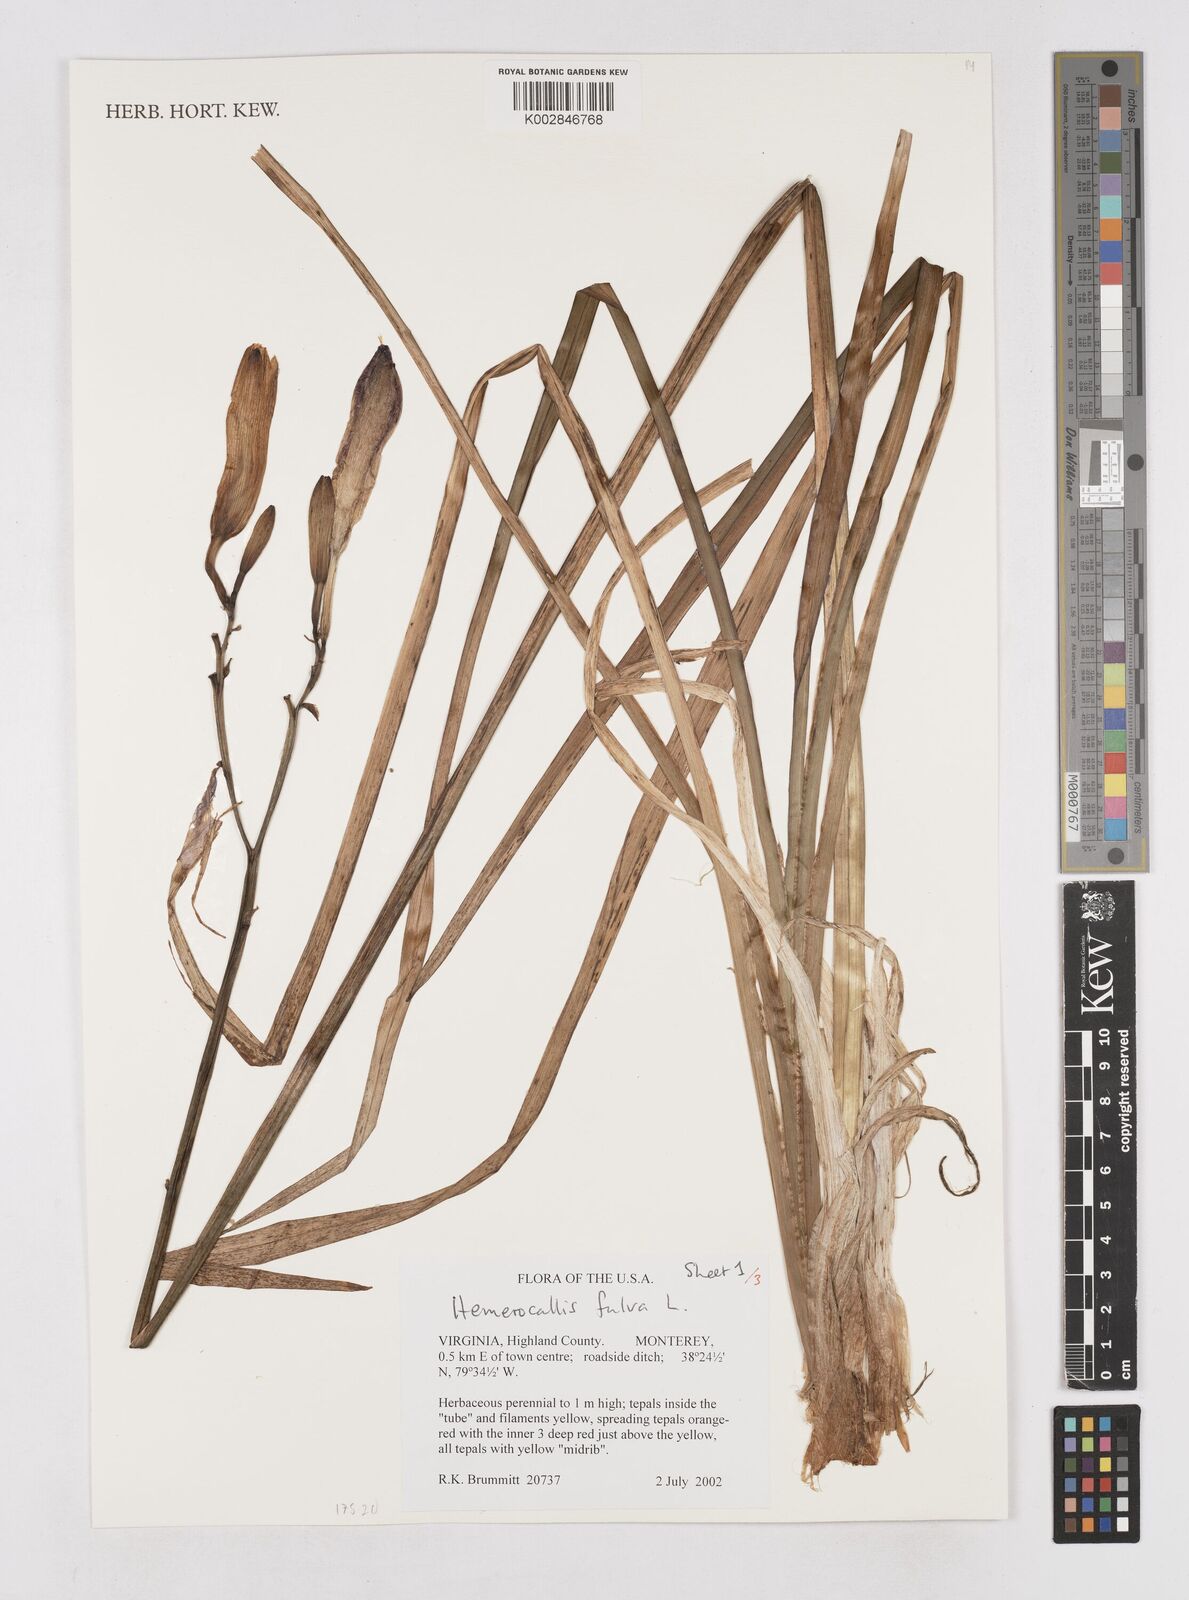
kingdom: Plantae
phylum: Tracheophyta
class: Liliopsida
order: Asparagales
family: Asphodelaceae
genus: Hemerocallis
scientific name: Hemerocallis fulva
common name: Orange day-lily
